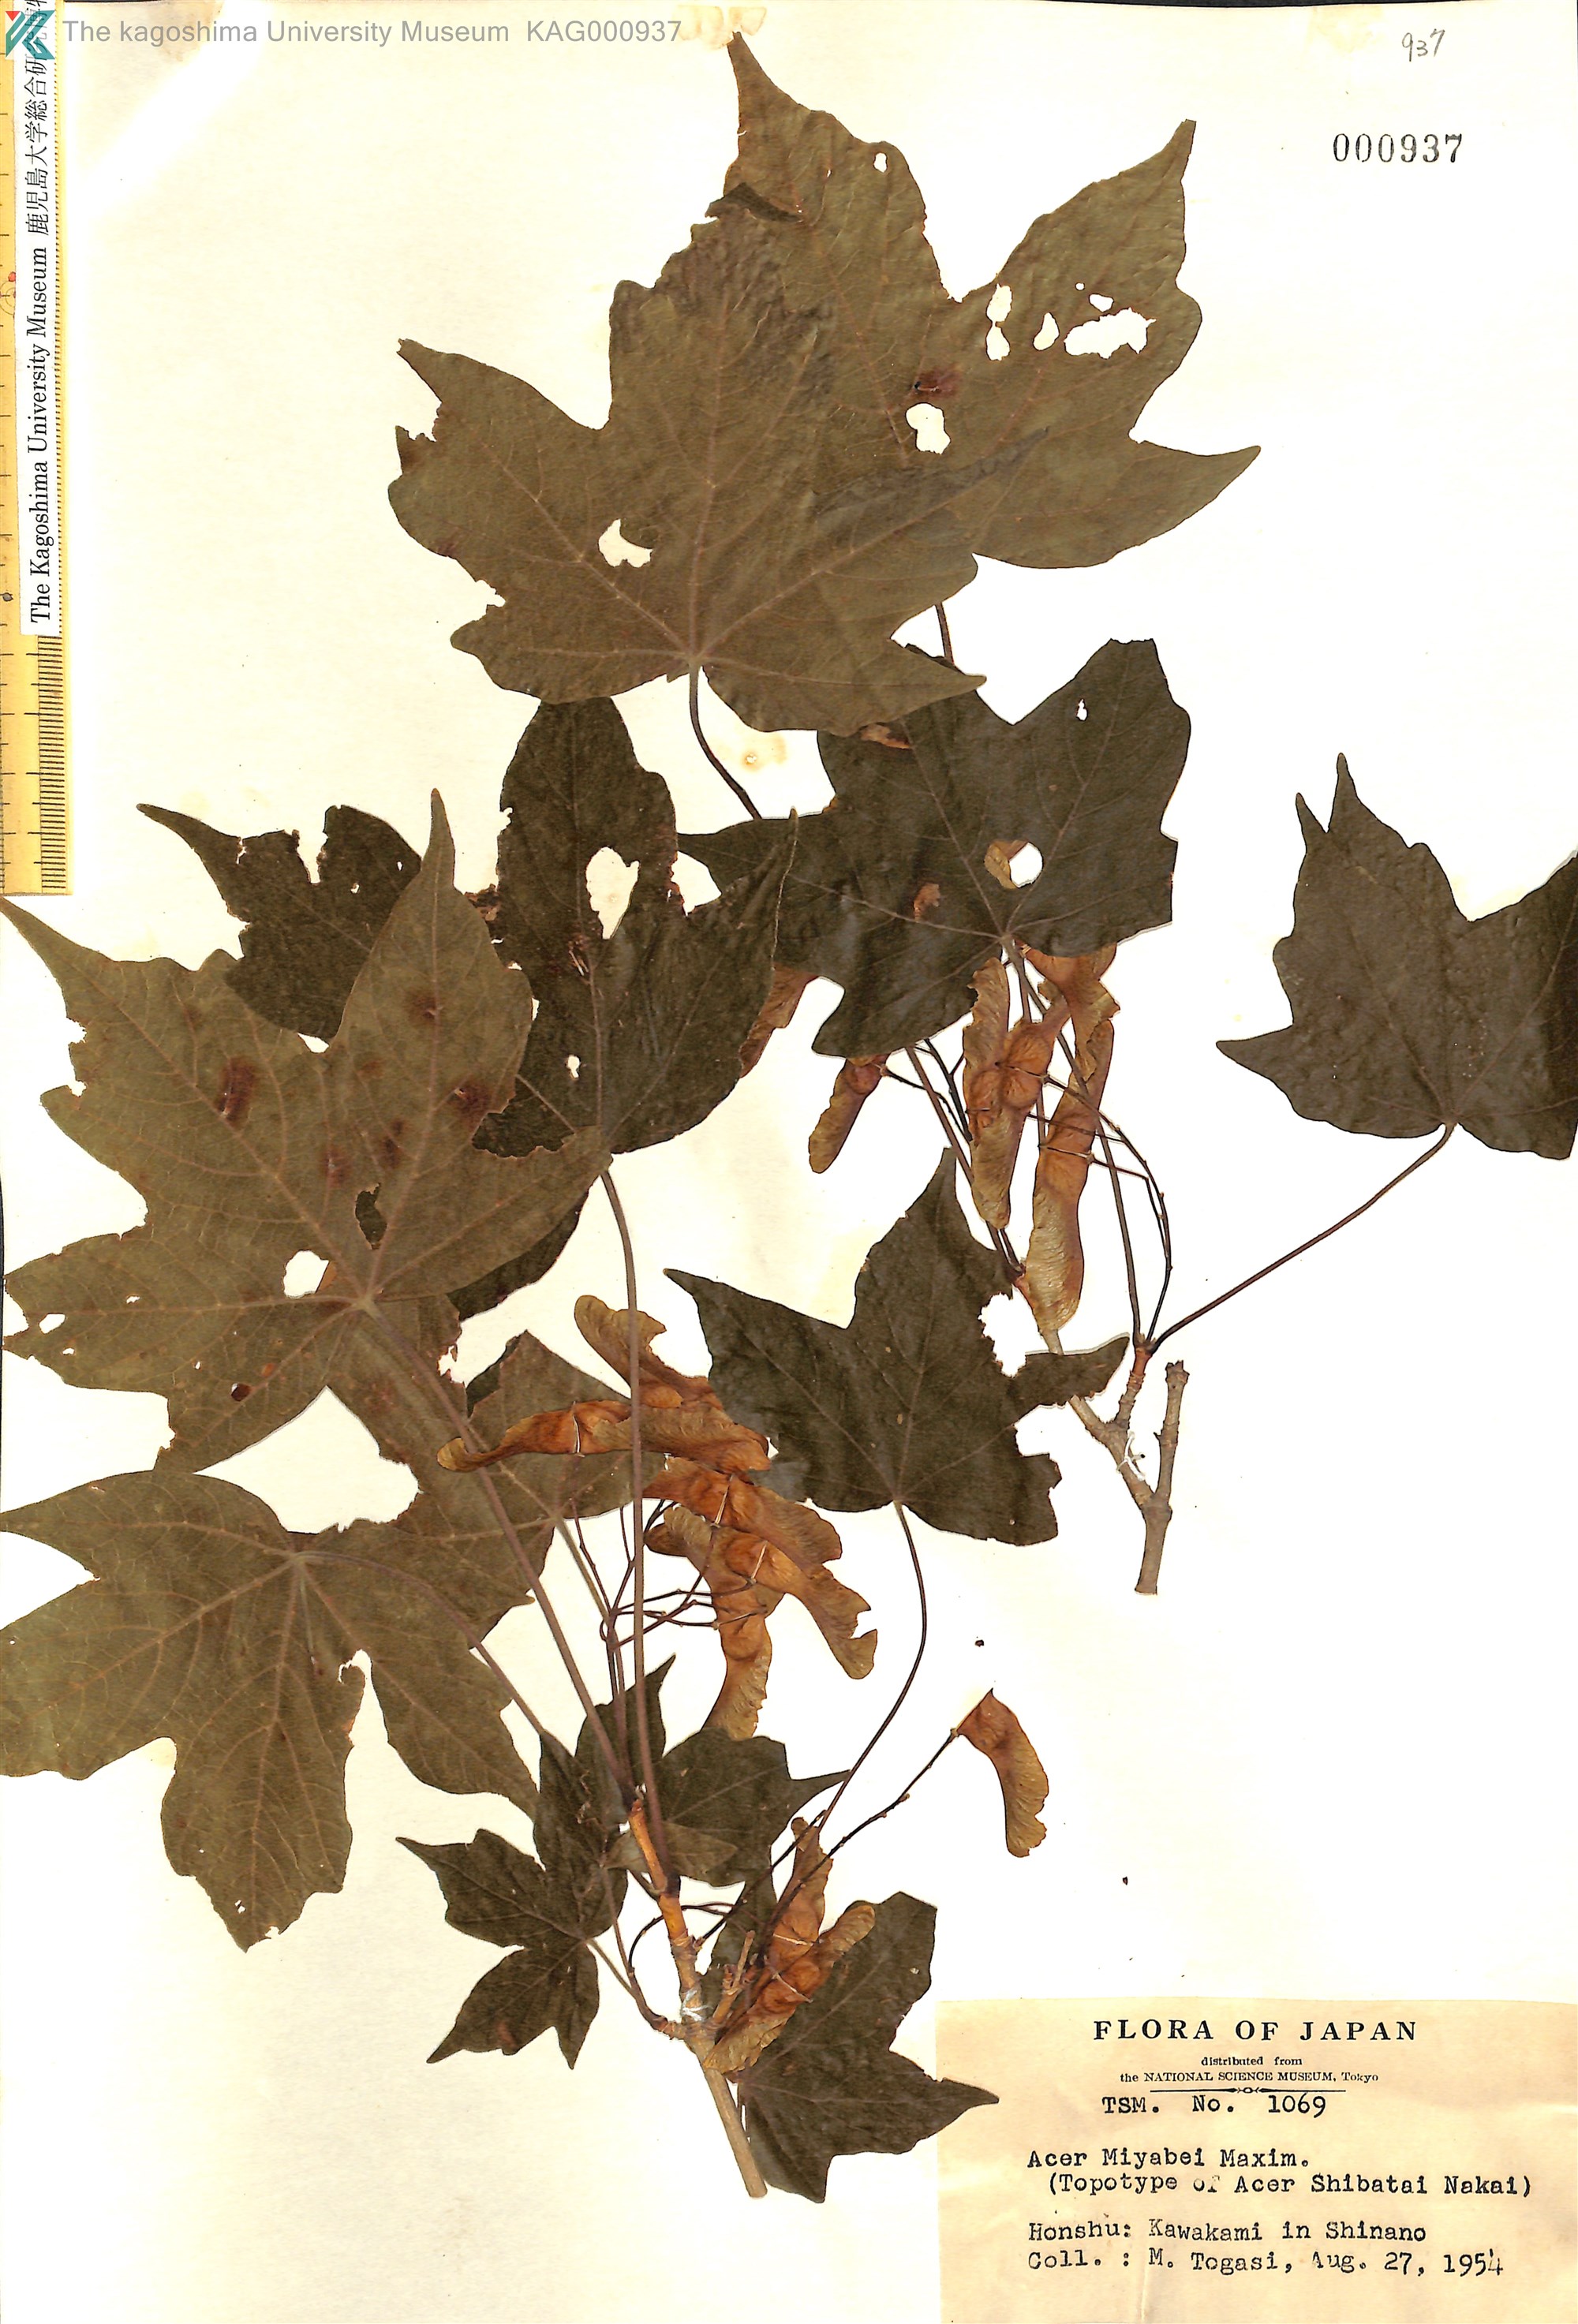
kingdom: Plantae
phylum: Tracheophyta
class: Magnoliopsida
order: Sapindales
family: Sapindaceae
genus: Acer
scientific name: Acer miyabei
